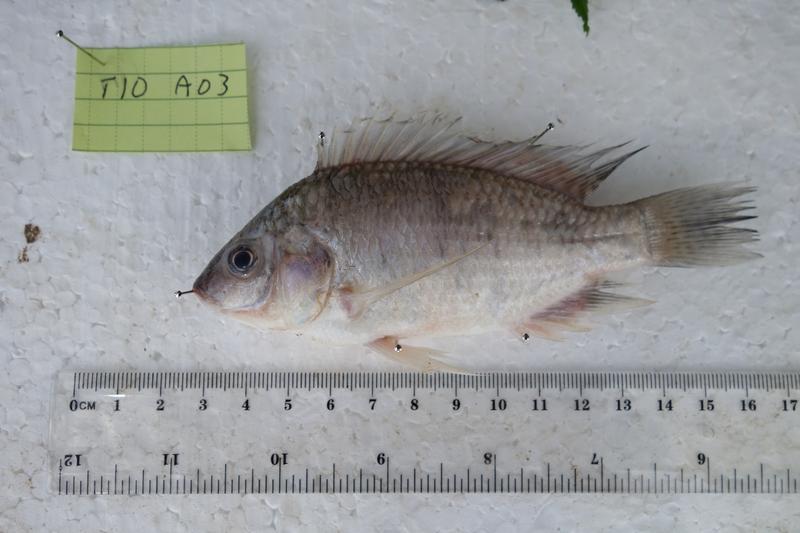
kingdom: Animalia
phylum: Chordata
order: Perciformes
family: Cichlidae
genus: Oreochromis
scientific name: Oreochromis rukwaensis
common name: Lake rukwa tilapia
